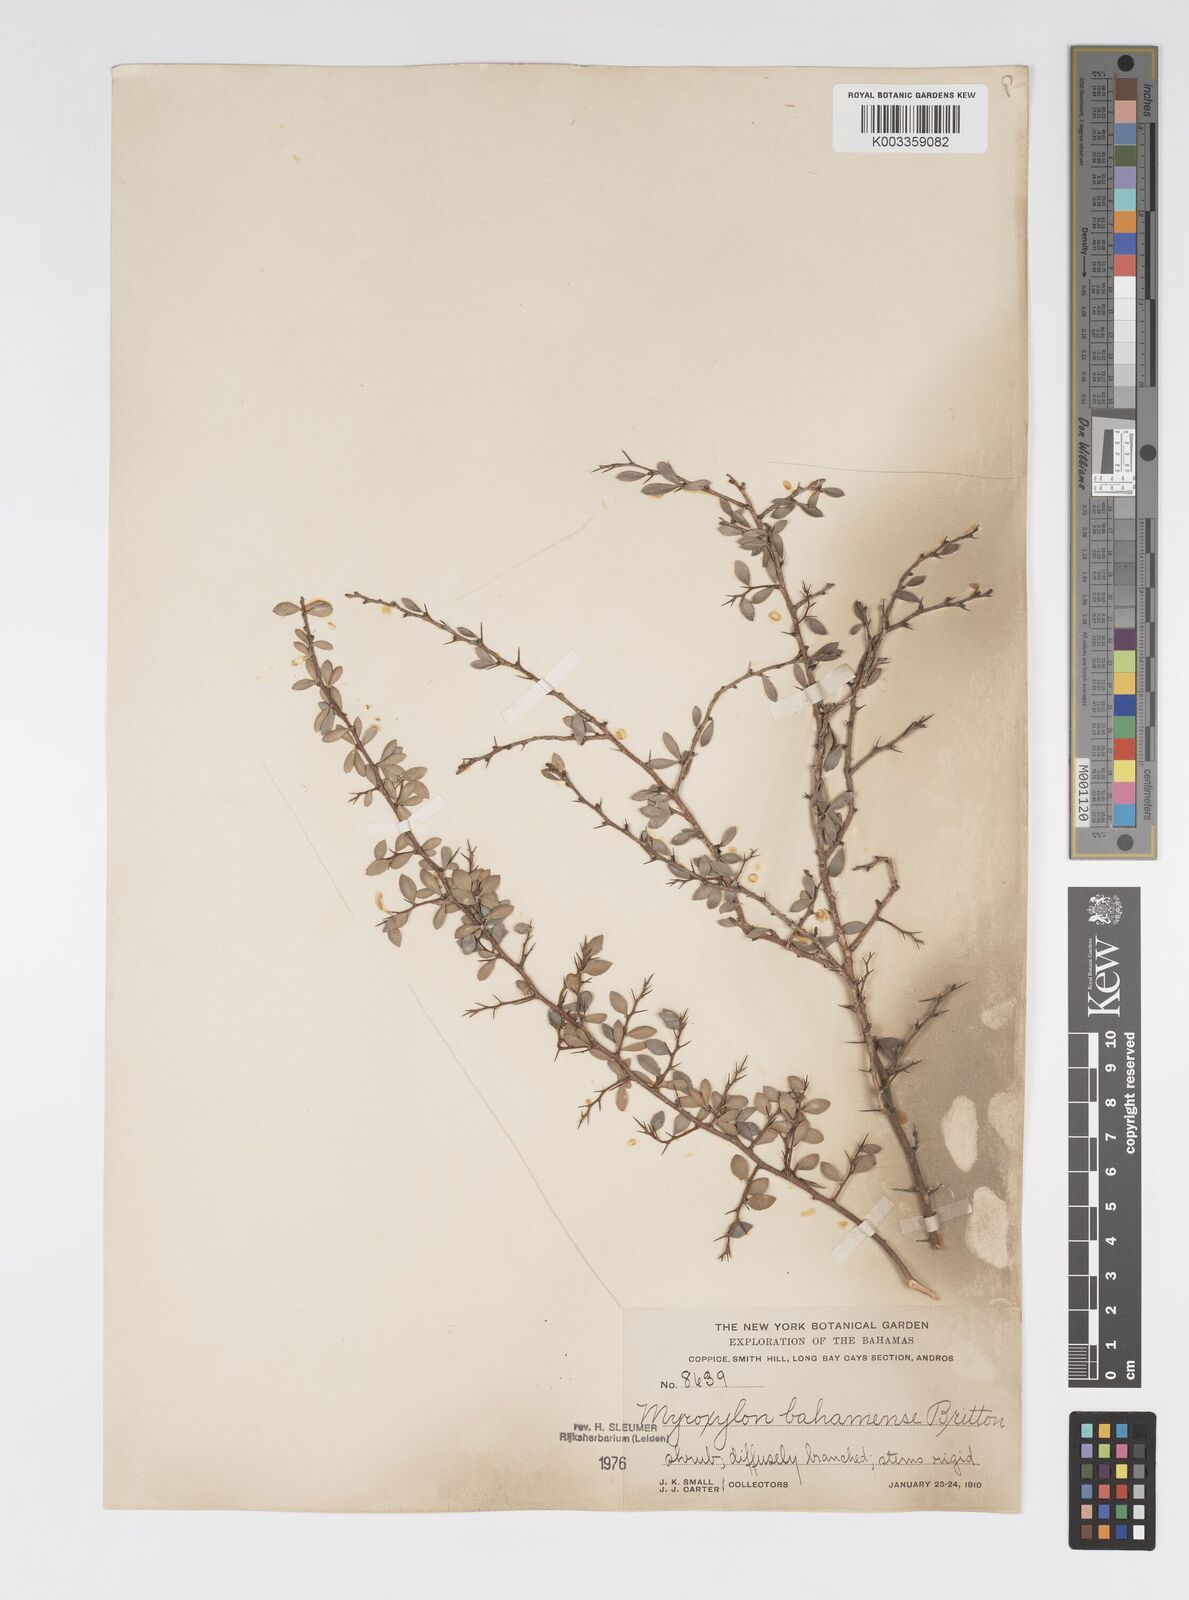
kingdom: Plantae
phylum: Tracheophyta
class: Magnoliopsida
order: Malpighiales
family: Salicaceae
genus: Xylosma
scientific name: Xylosma bahamense
